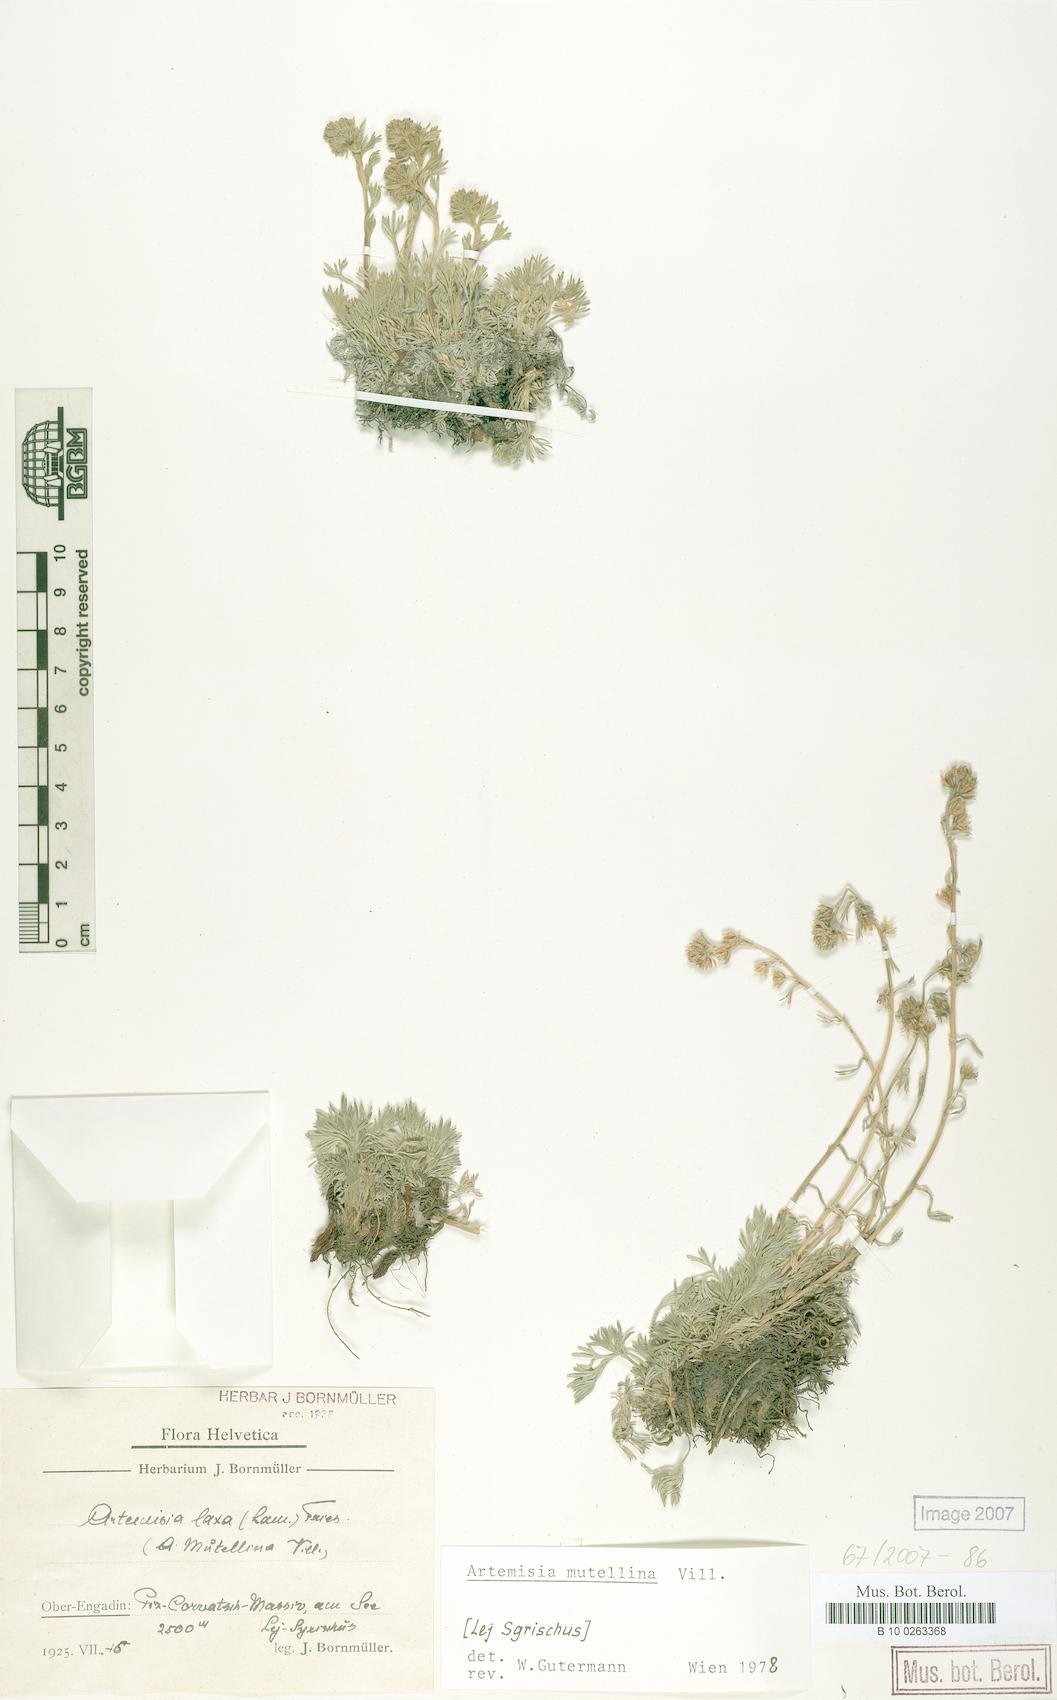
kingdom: Plantae
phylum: Tracheophyta
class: Magnoliopsida
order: Asterales
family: Asteraceae
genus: Artemisia
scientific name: Artemisia mutellina
